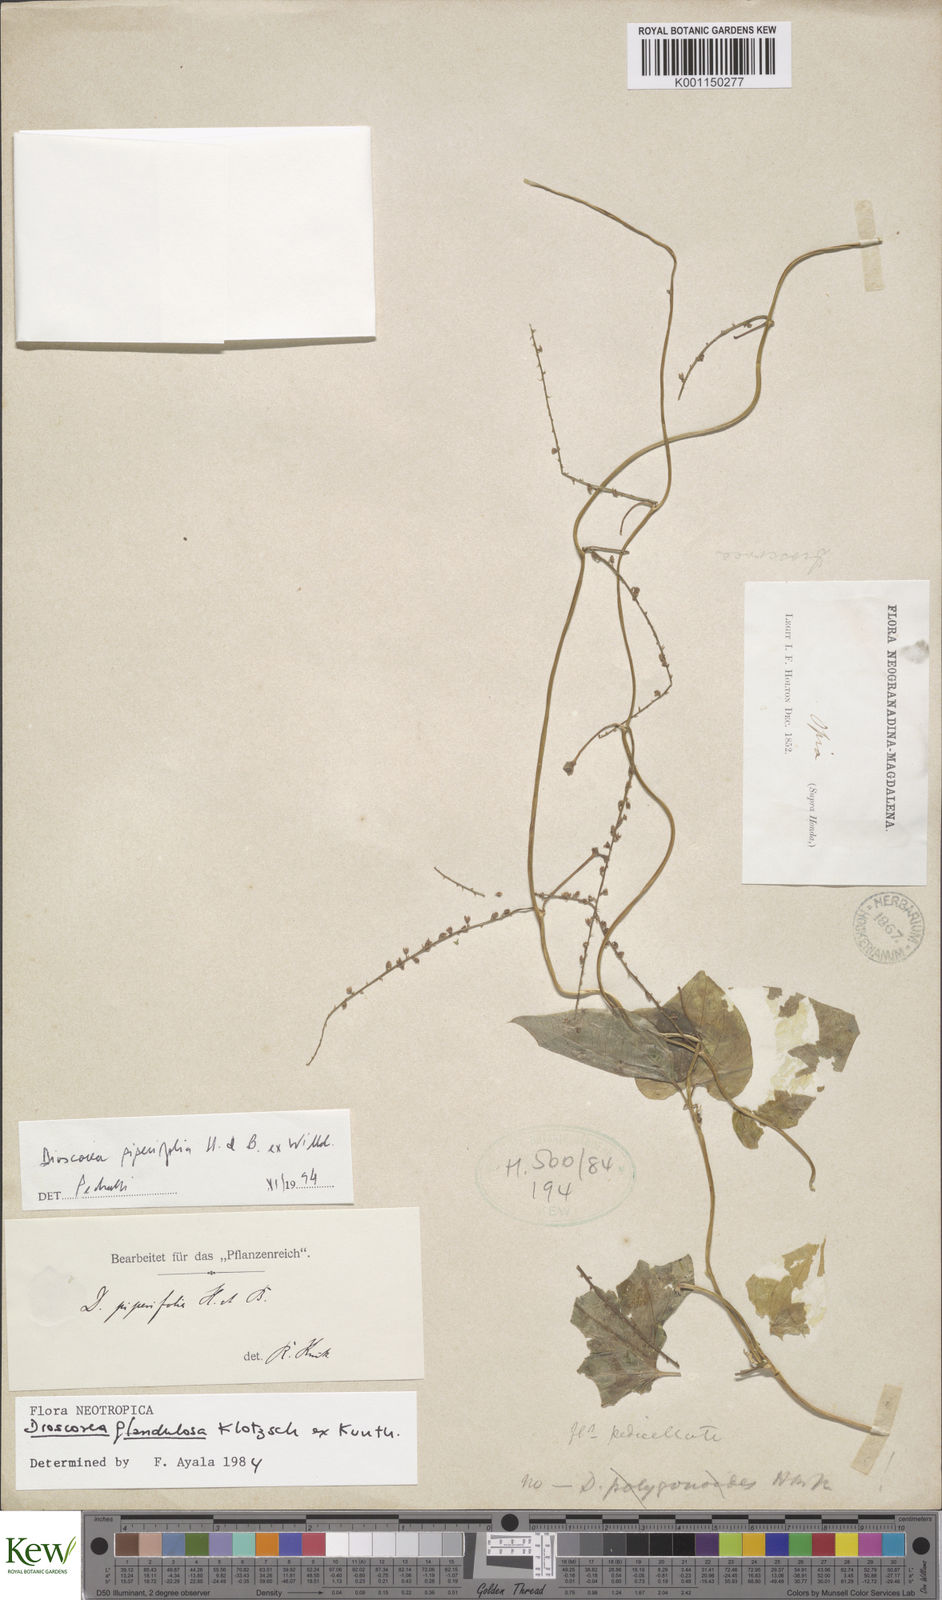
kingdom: Plantae
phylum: Tracheophyta
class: Liliopsida
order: Dioscoreales
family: Dioscoreaceae
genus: Dioscorea
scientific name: Dioscorea piperifolia
